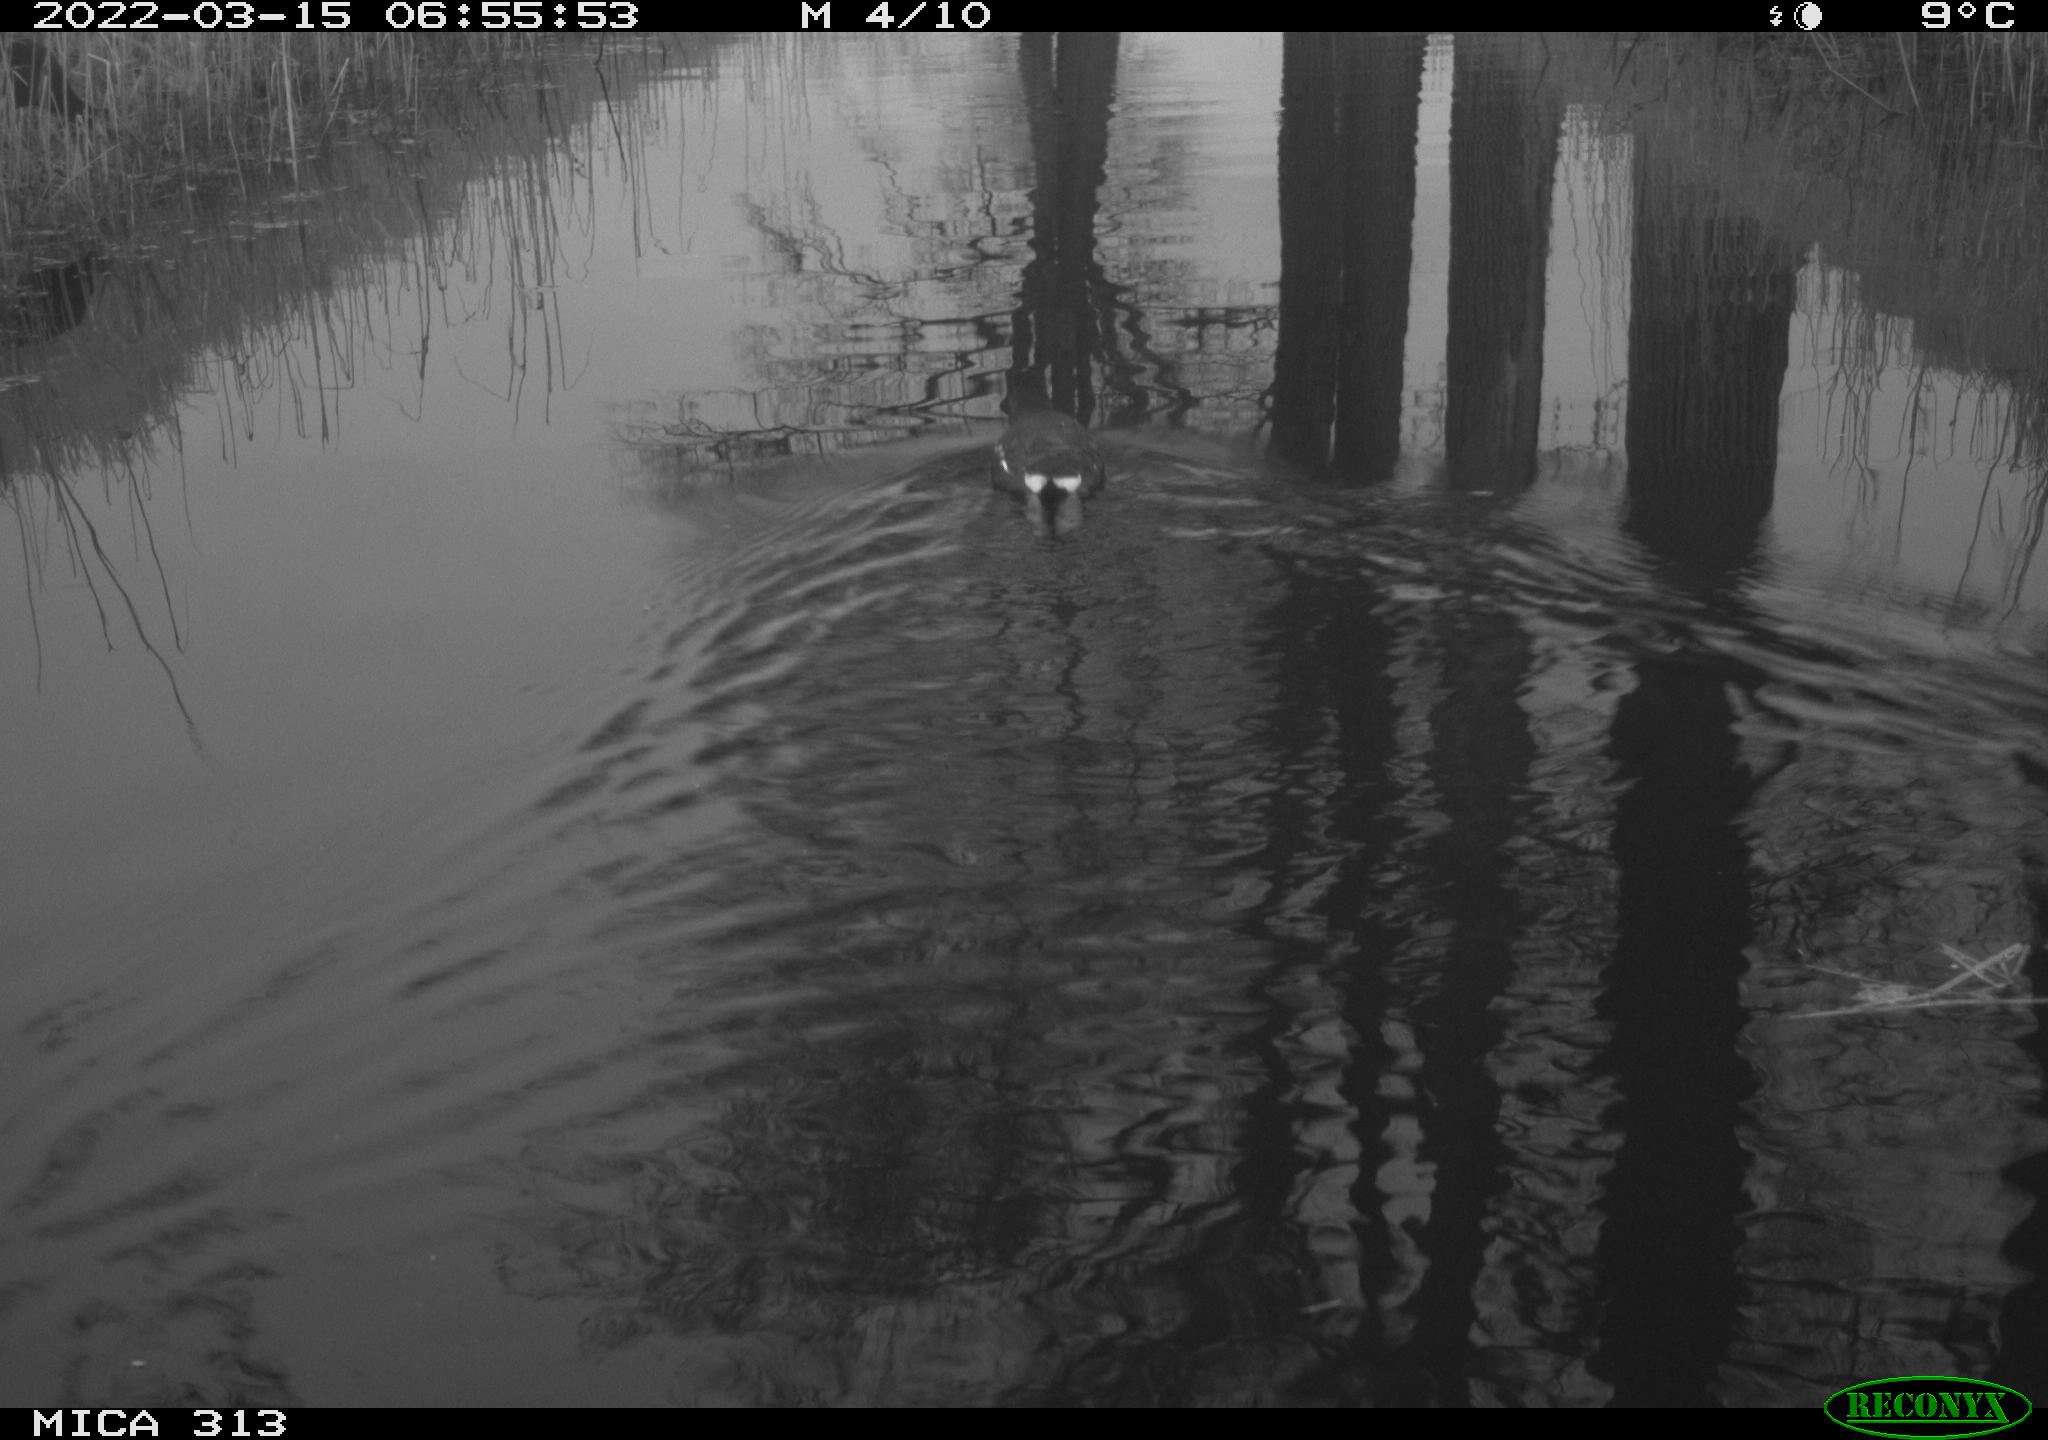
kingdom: Animalia
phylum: Chordata
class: Aves
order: Gruiformes
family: Rallidae
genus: Gallinula
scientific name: Gallinula chloropus
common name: Common moorhen
